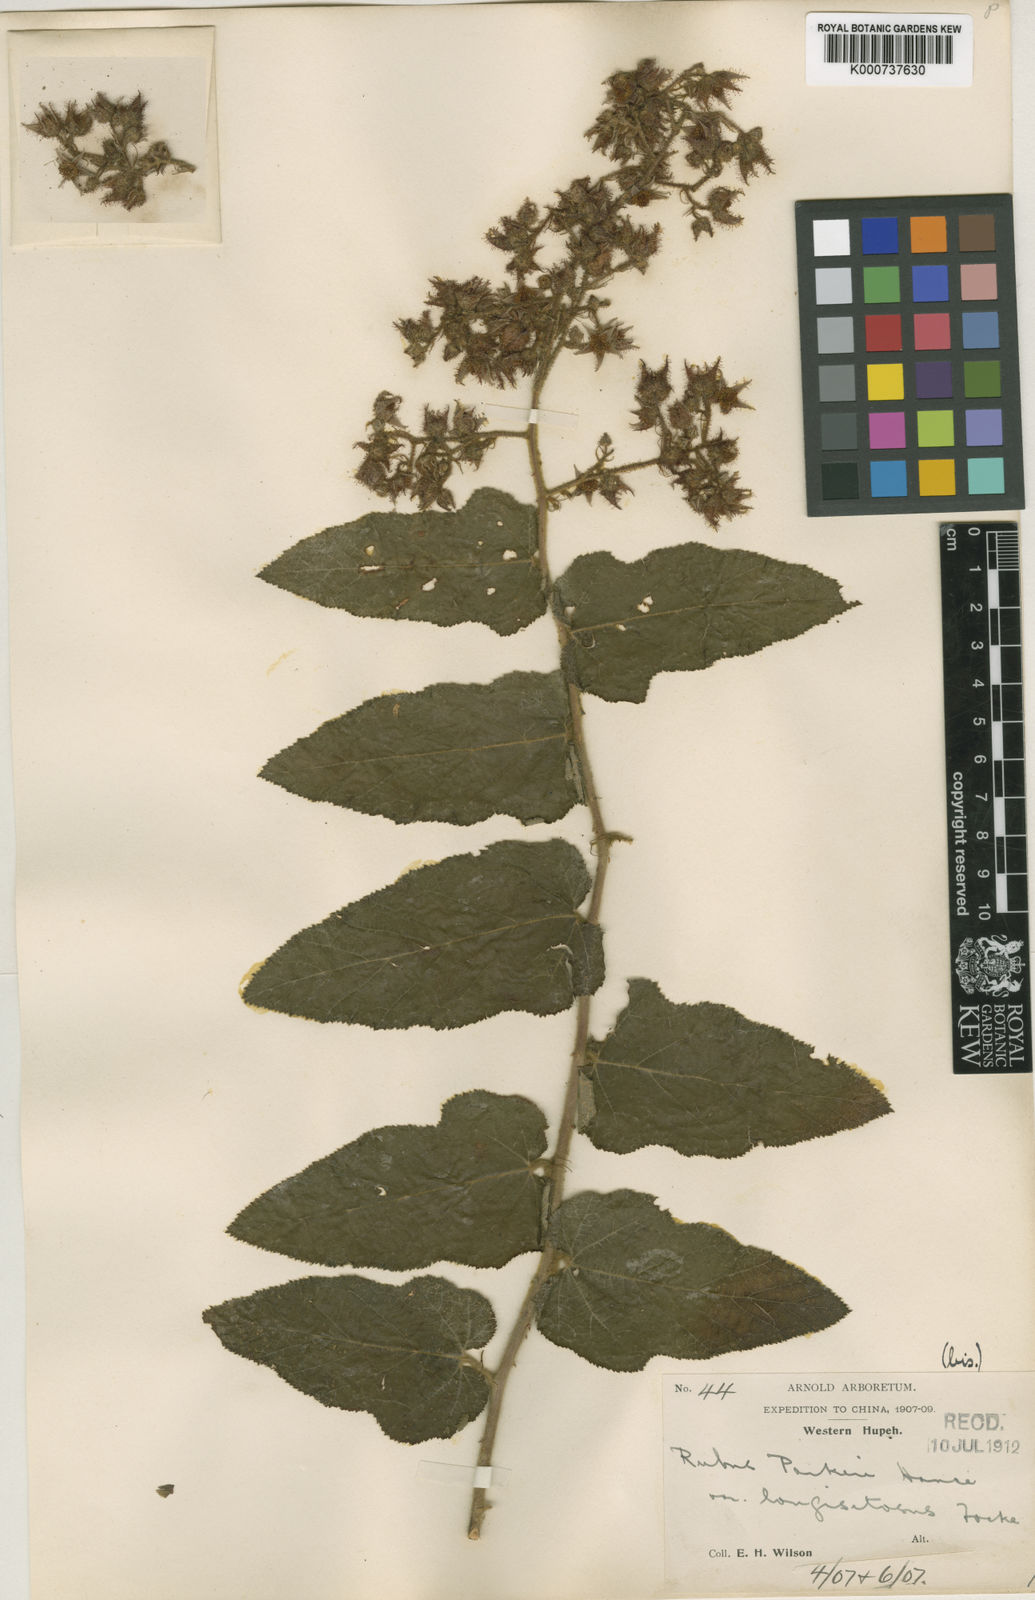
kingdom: Plantae
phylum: Tracheophyta
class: Magnoliopsida
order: Rosales
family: Rosaceae
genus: Rubus
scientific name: Rubus parkeri
